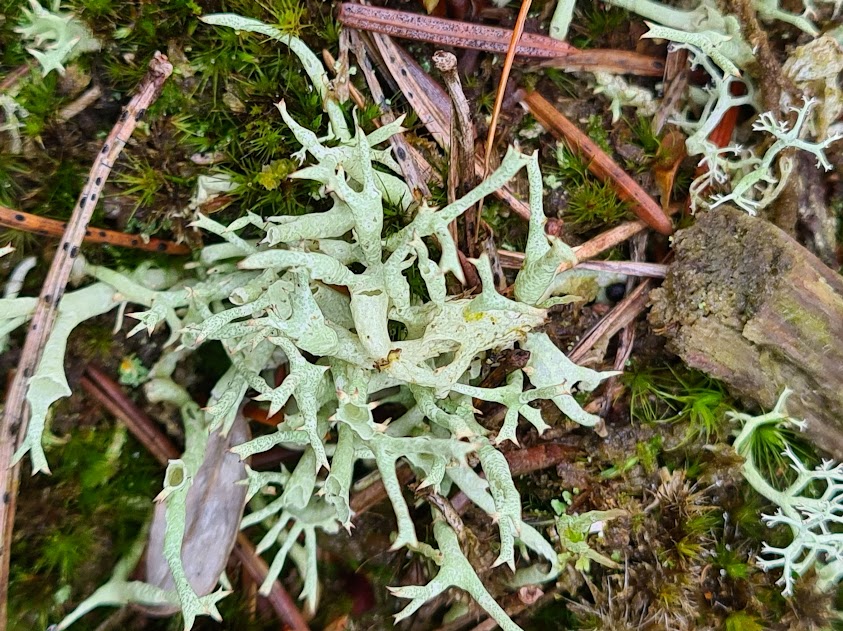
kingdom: Fungi
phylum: Ascomycota
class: Lecanoromycetes
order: Lecanorales
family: Cladoniaceae
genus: Cladonia
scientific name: Cladonia uncialis
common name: pigget bægerlav
